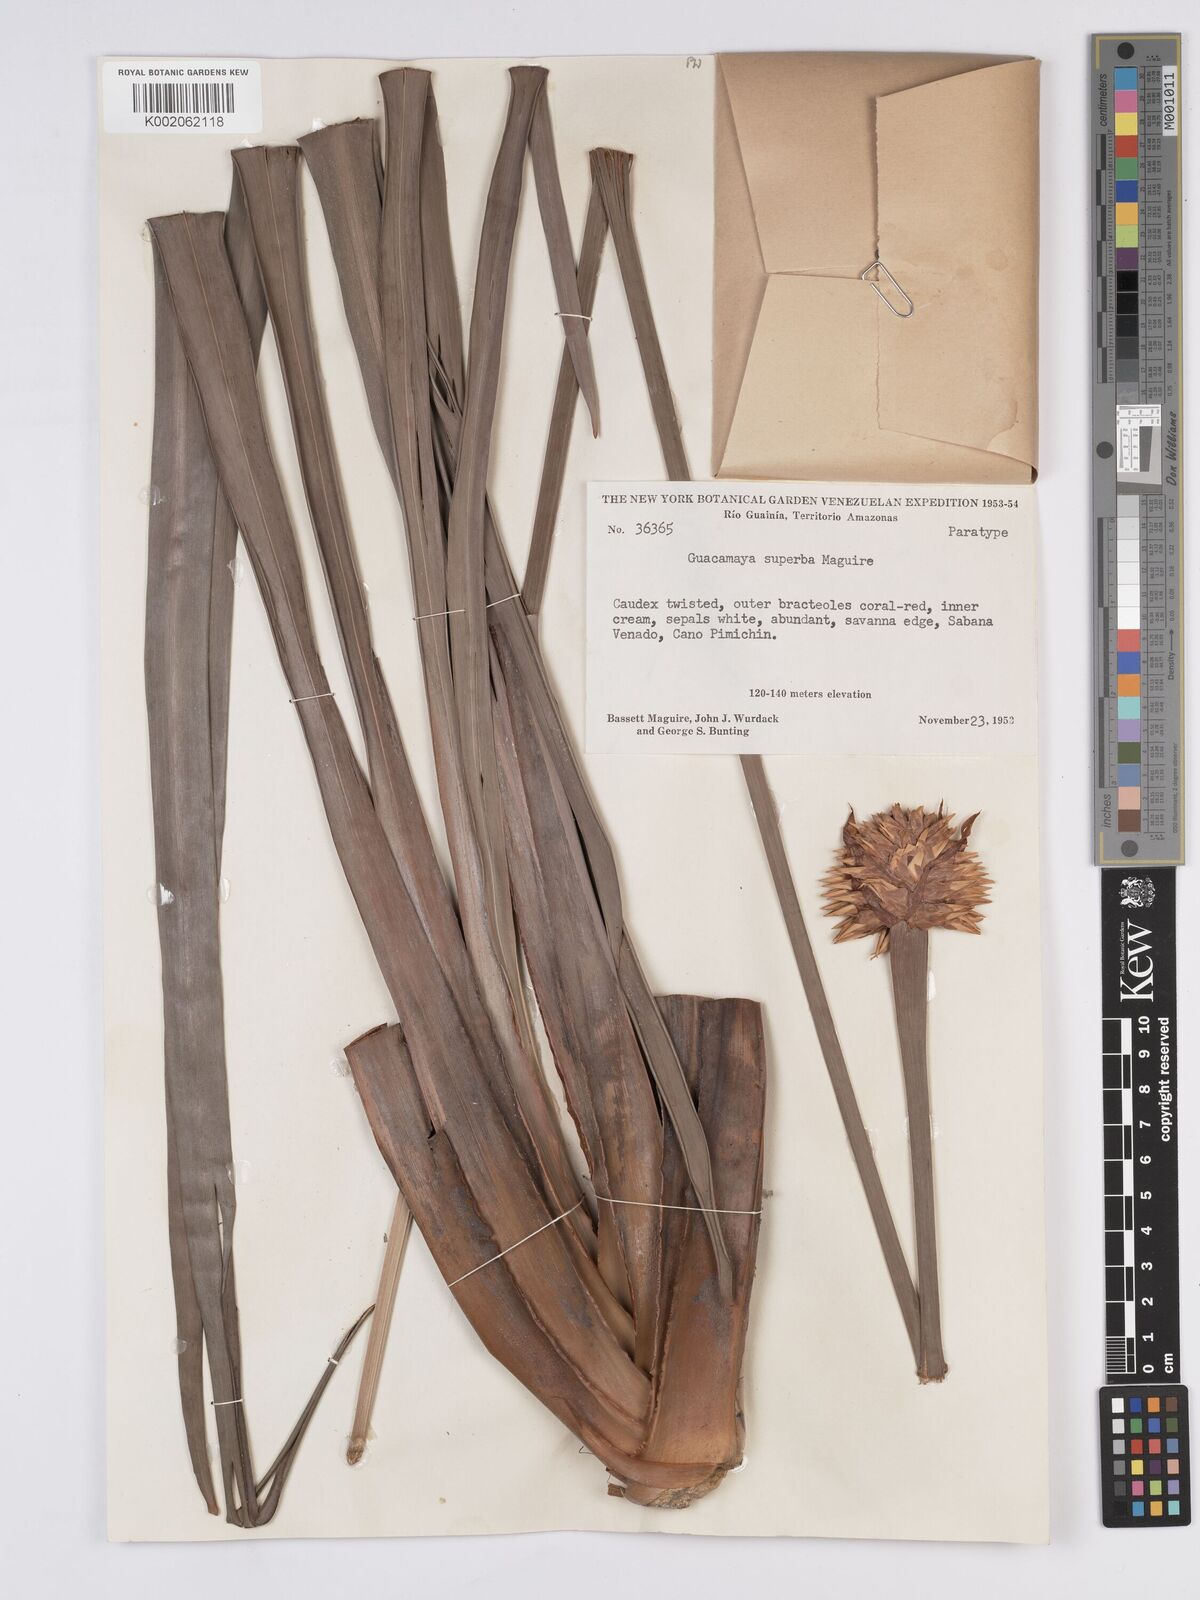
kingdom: Plantae
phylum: Tracheophyta
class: Liliopsida
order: Poales
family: Rapateaceae
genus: Guacamaya
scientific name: Guacamaya superba
